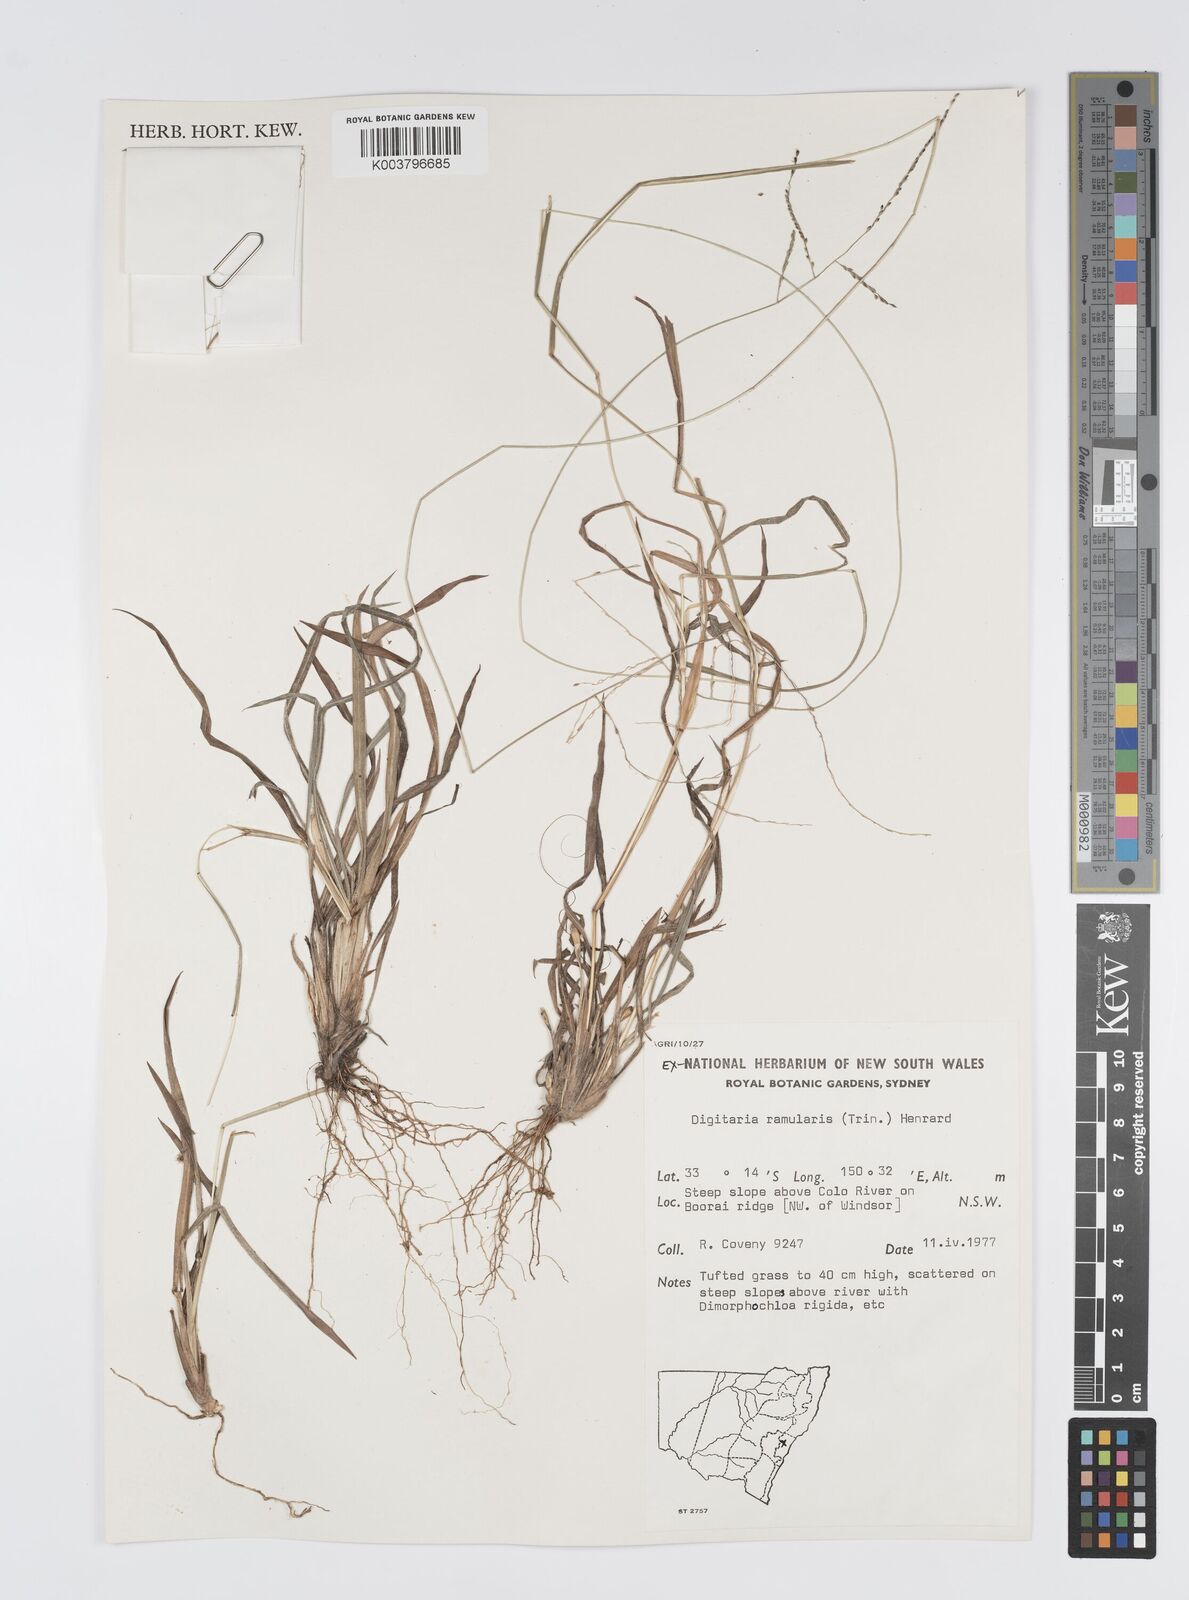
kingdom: Plantae
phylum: Tracheophyta
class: Liliopsida
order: Poales
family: Poaceae
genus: Digitaria
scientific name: Digitaria ramularis
